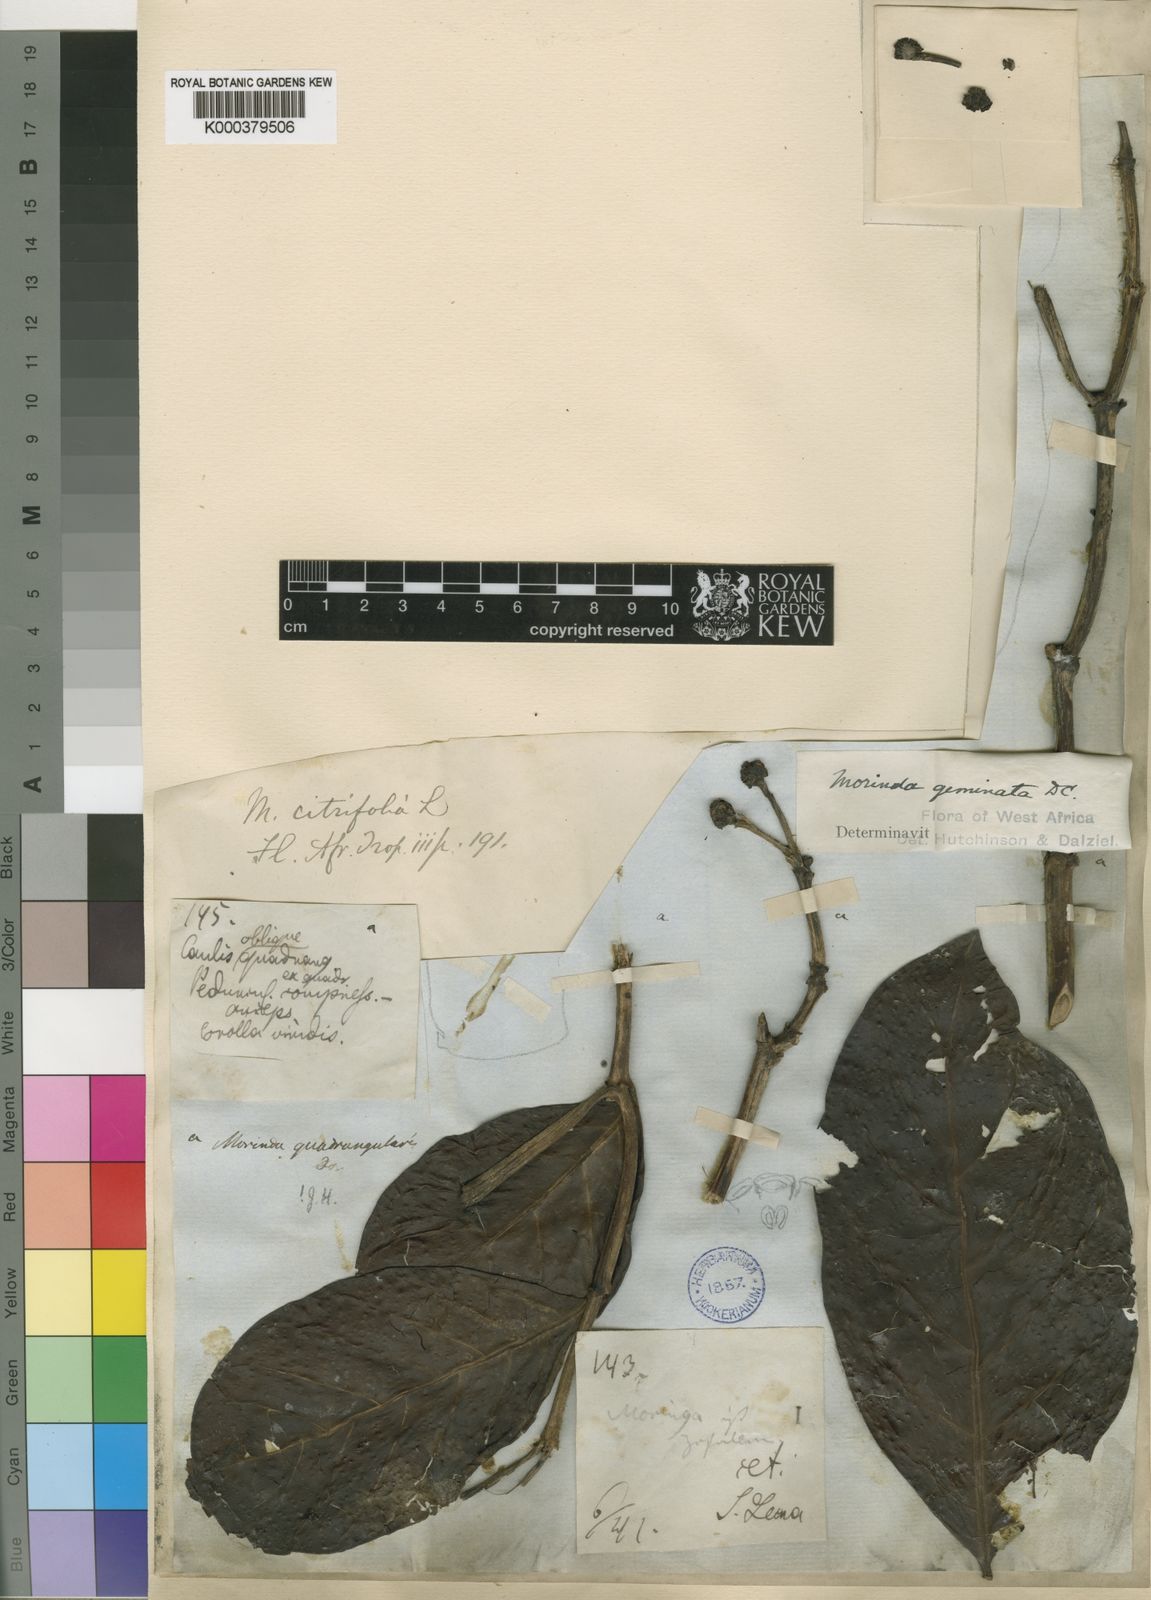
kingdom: Plantae
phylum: Tracheophyta
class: Magnoliopsida
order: Gentianales
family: Rubiaceae
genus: Morinda
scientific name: Morinda chrysorhiza
